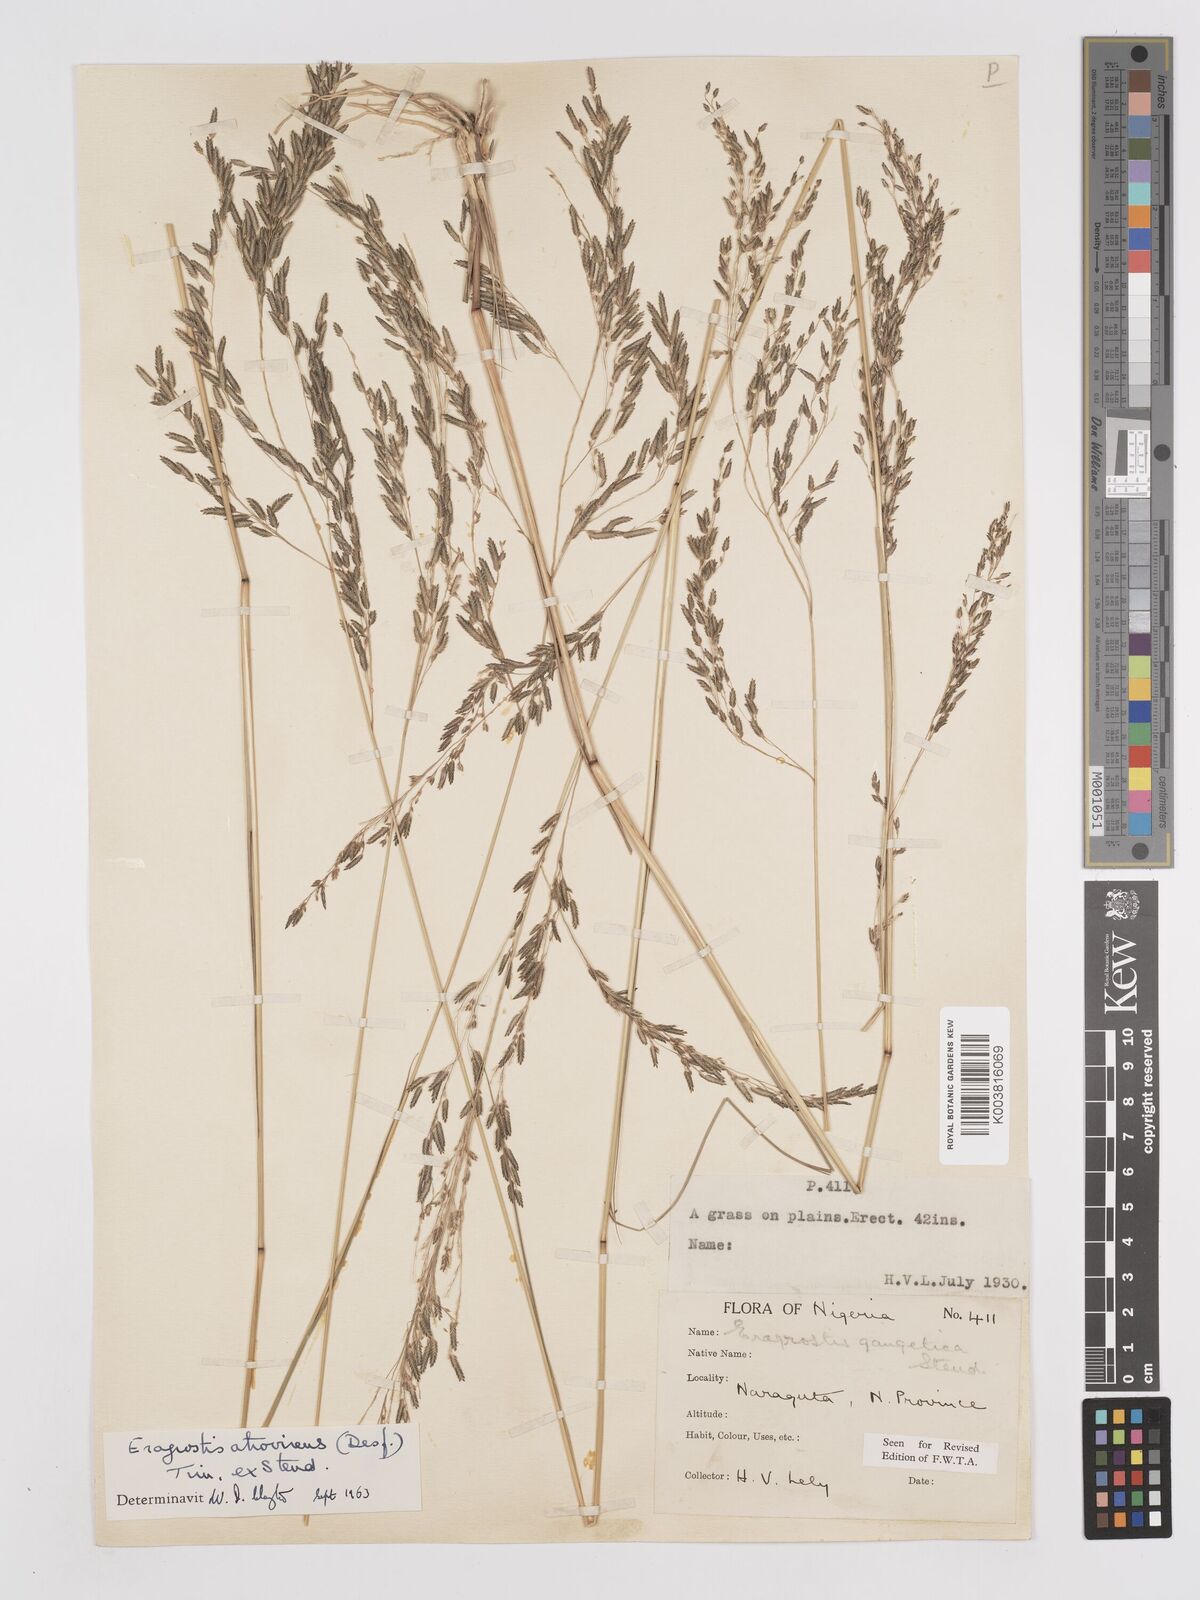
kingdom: Plantae
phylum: Tracheophyta
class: Liliopsida
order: Poales
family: Poaceae
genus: Eragrostis
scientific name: Eragrostis atrovirens
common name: Thalia lovegrass
